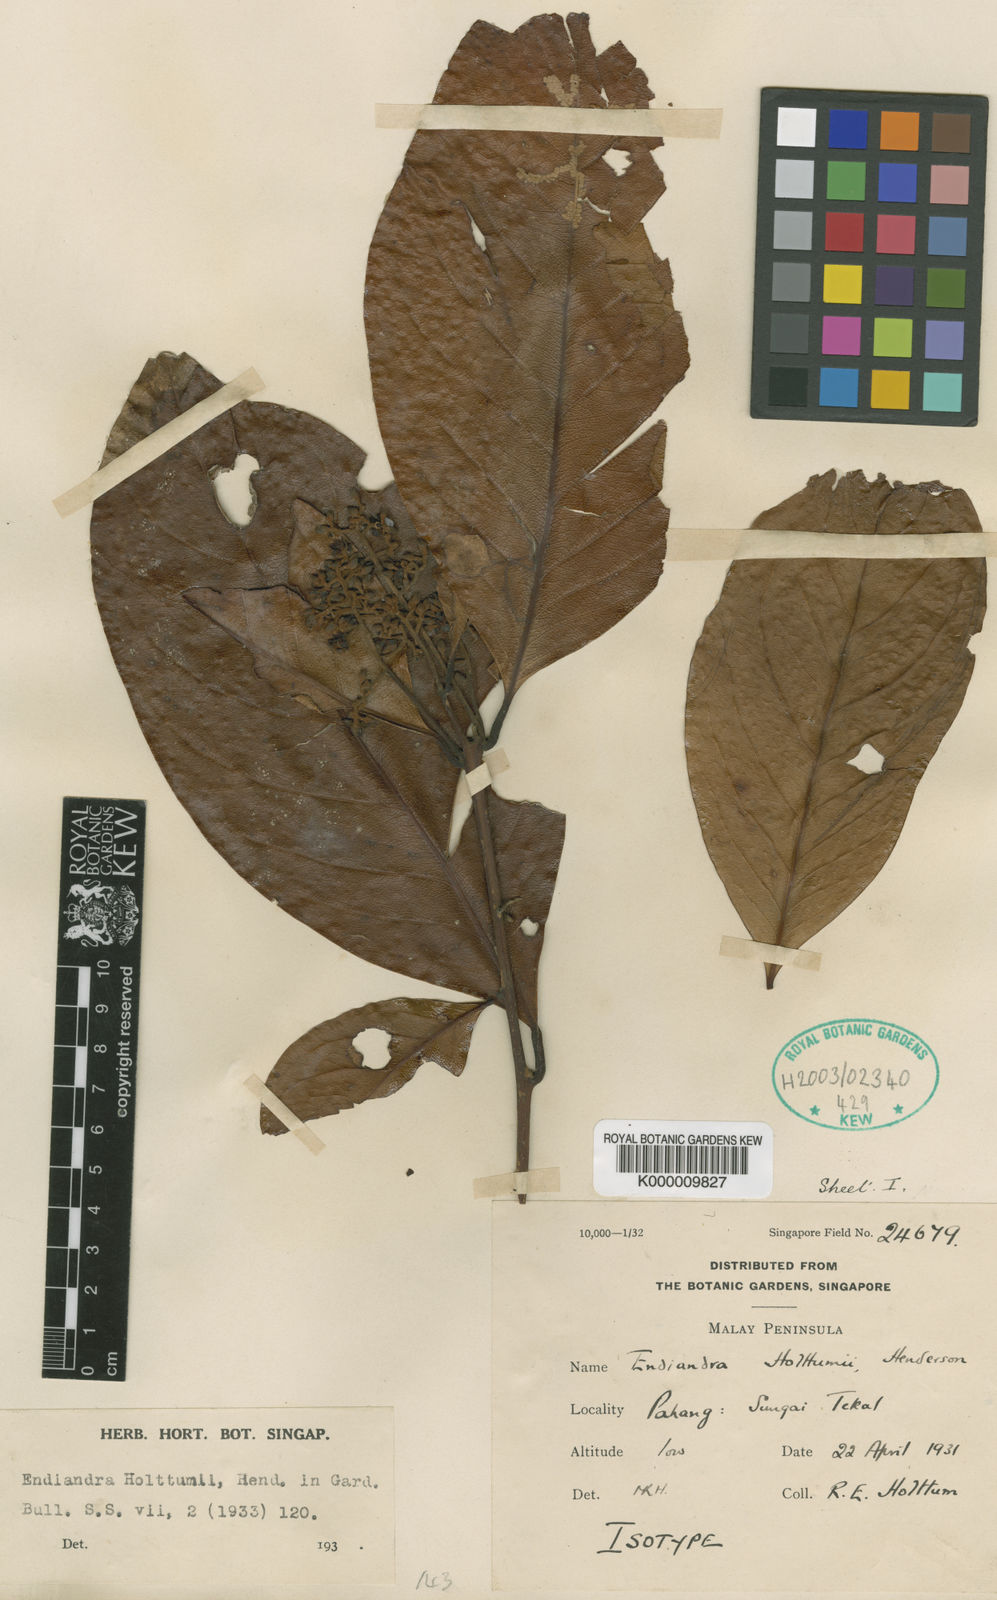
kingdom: Plantae
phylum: Tracheophyta
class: Magnoliopsida
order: Laurales
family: Lauraceae
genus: Endiandra
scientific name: Endiandra holttumii
